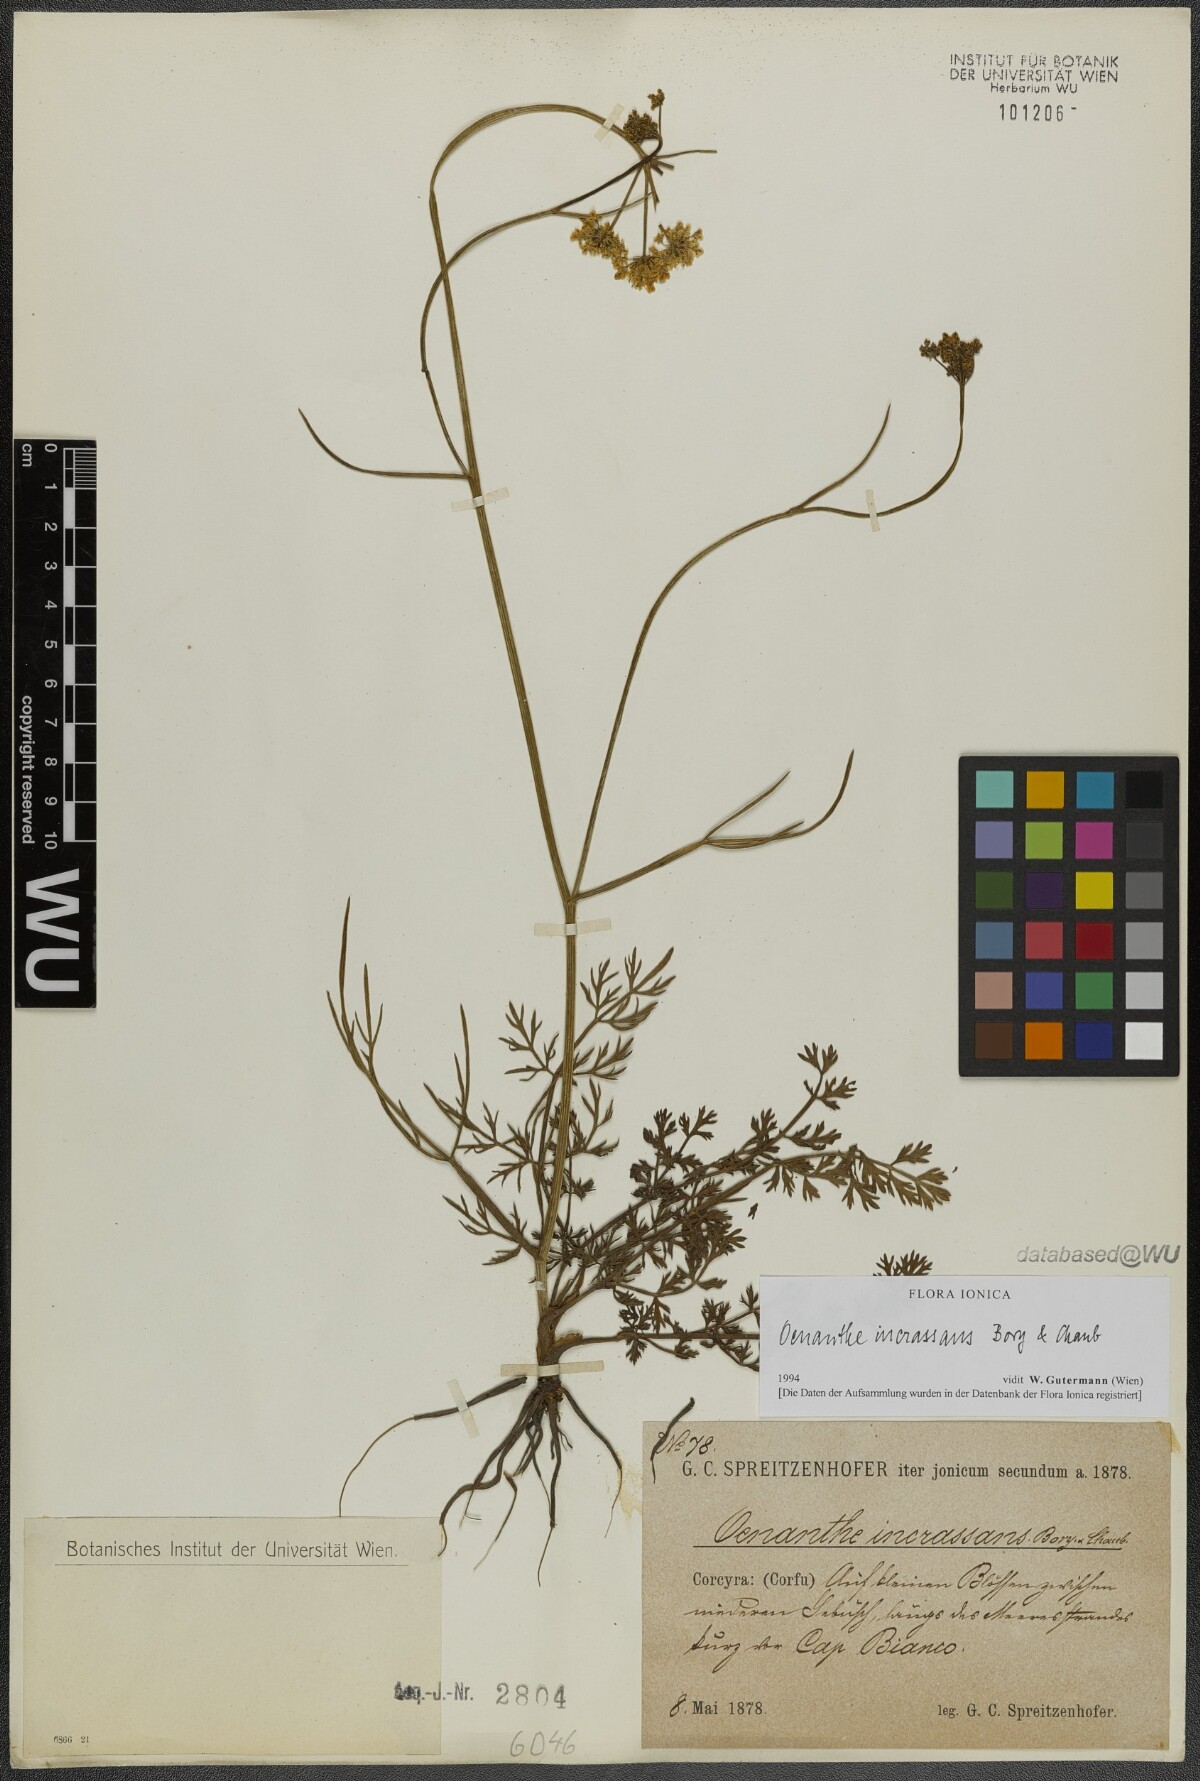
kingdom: Plantae
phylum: Tracheophyta
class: Magnoliopsida
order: Apiales
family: Apiaceae
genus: Oenanthe
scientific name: Oenanthe pimpinelloides
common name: Corky-fruited water-dropwort
